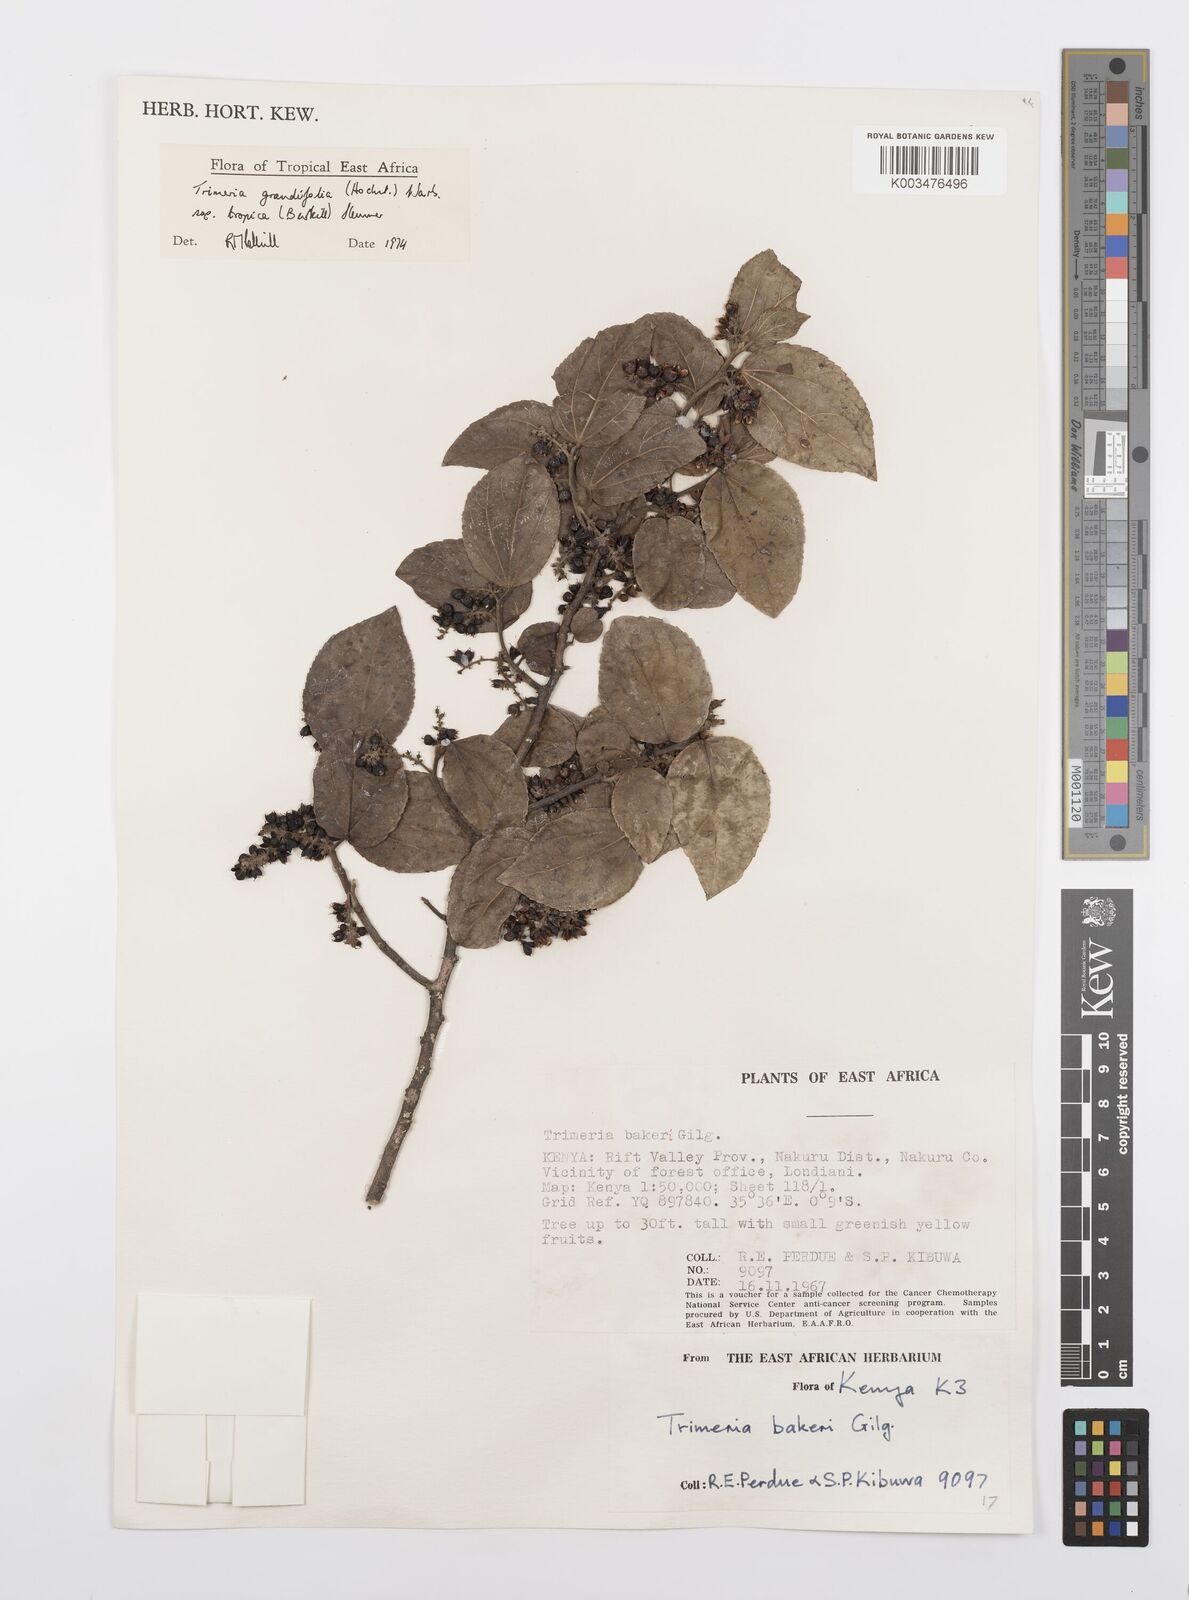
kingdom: Plantae
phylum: Tracheophyta
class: Magnoliopsida
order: Malpighiales
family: Salicaceae
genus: Trimeria
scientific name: Trimeria grandifolia
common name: Wild mulberry
